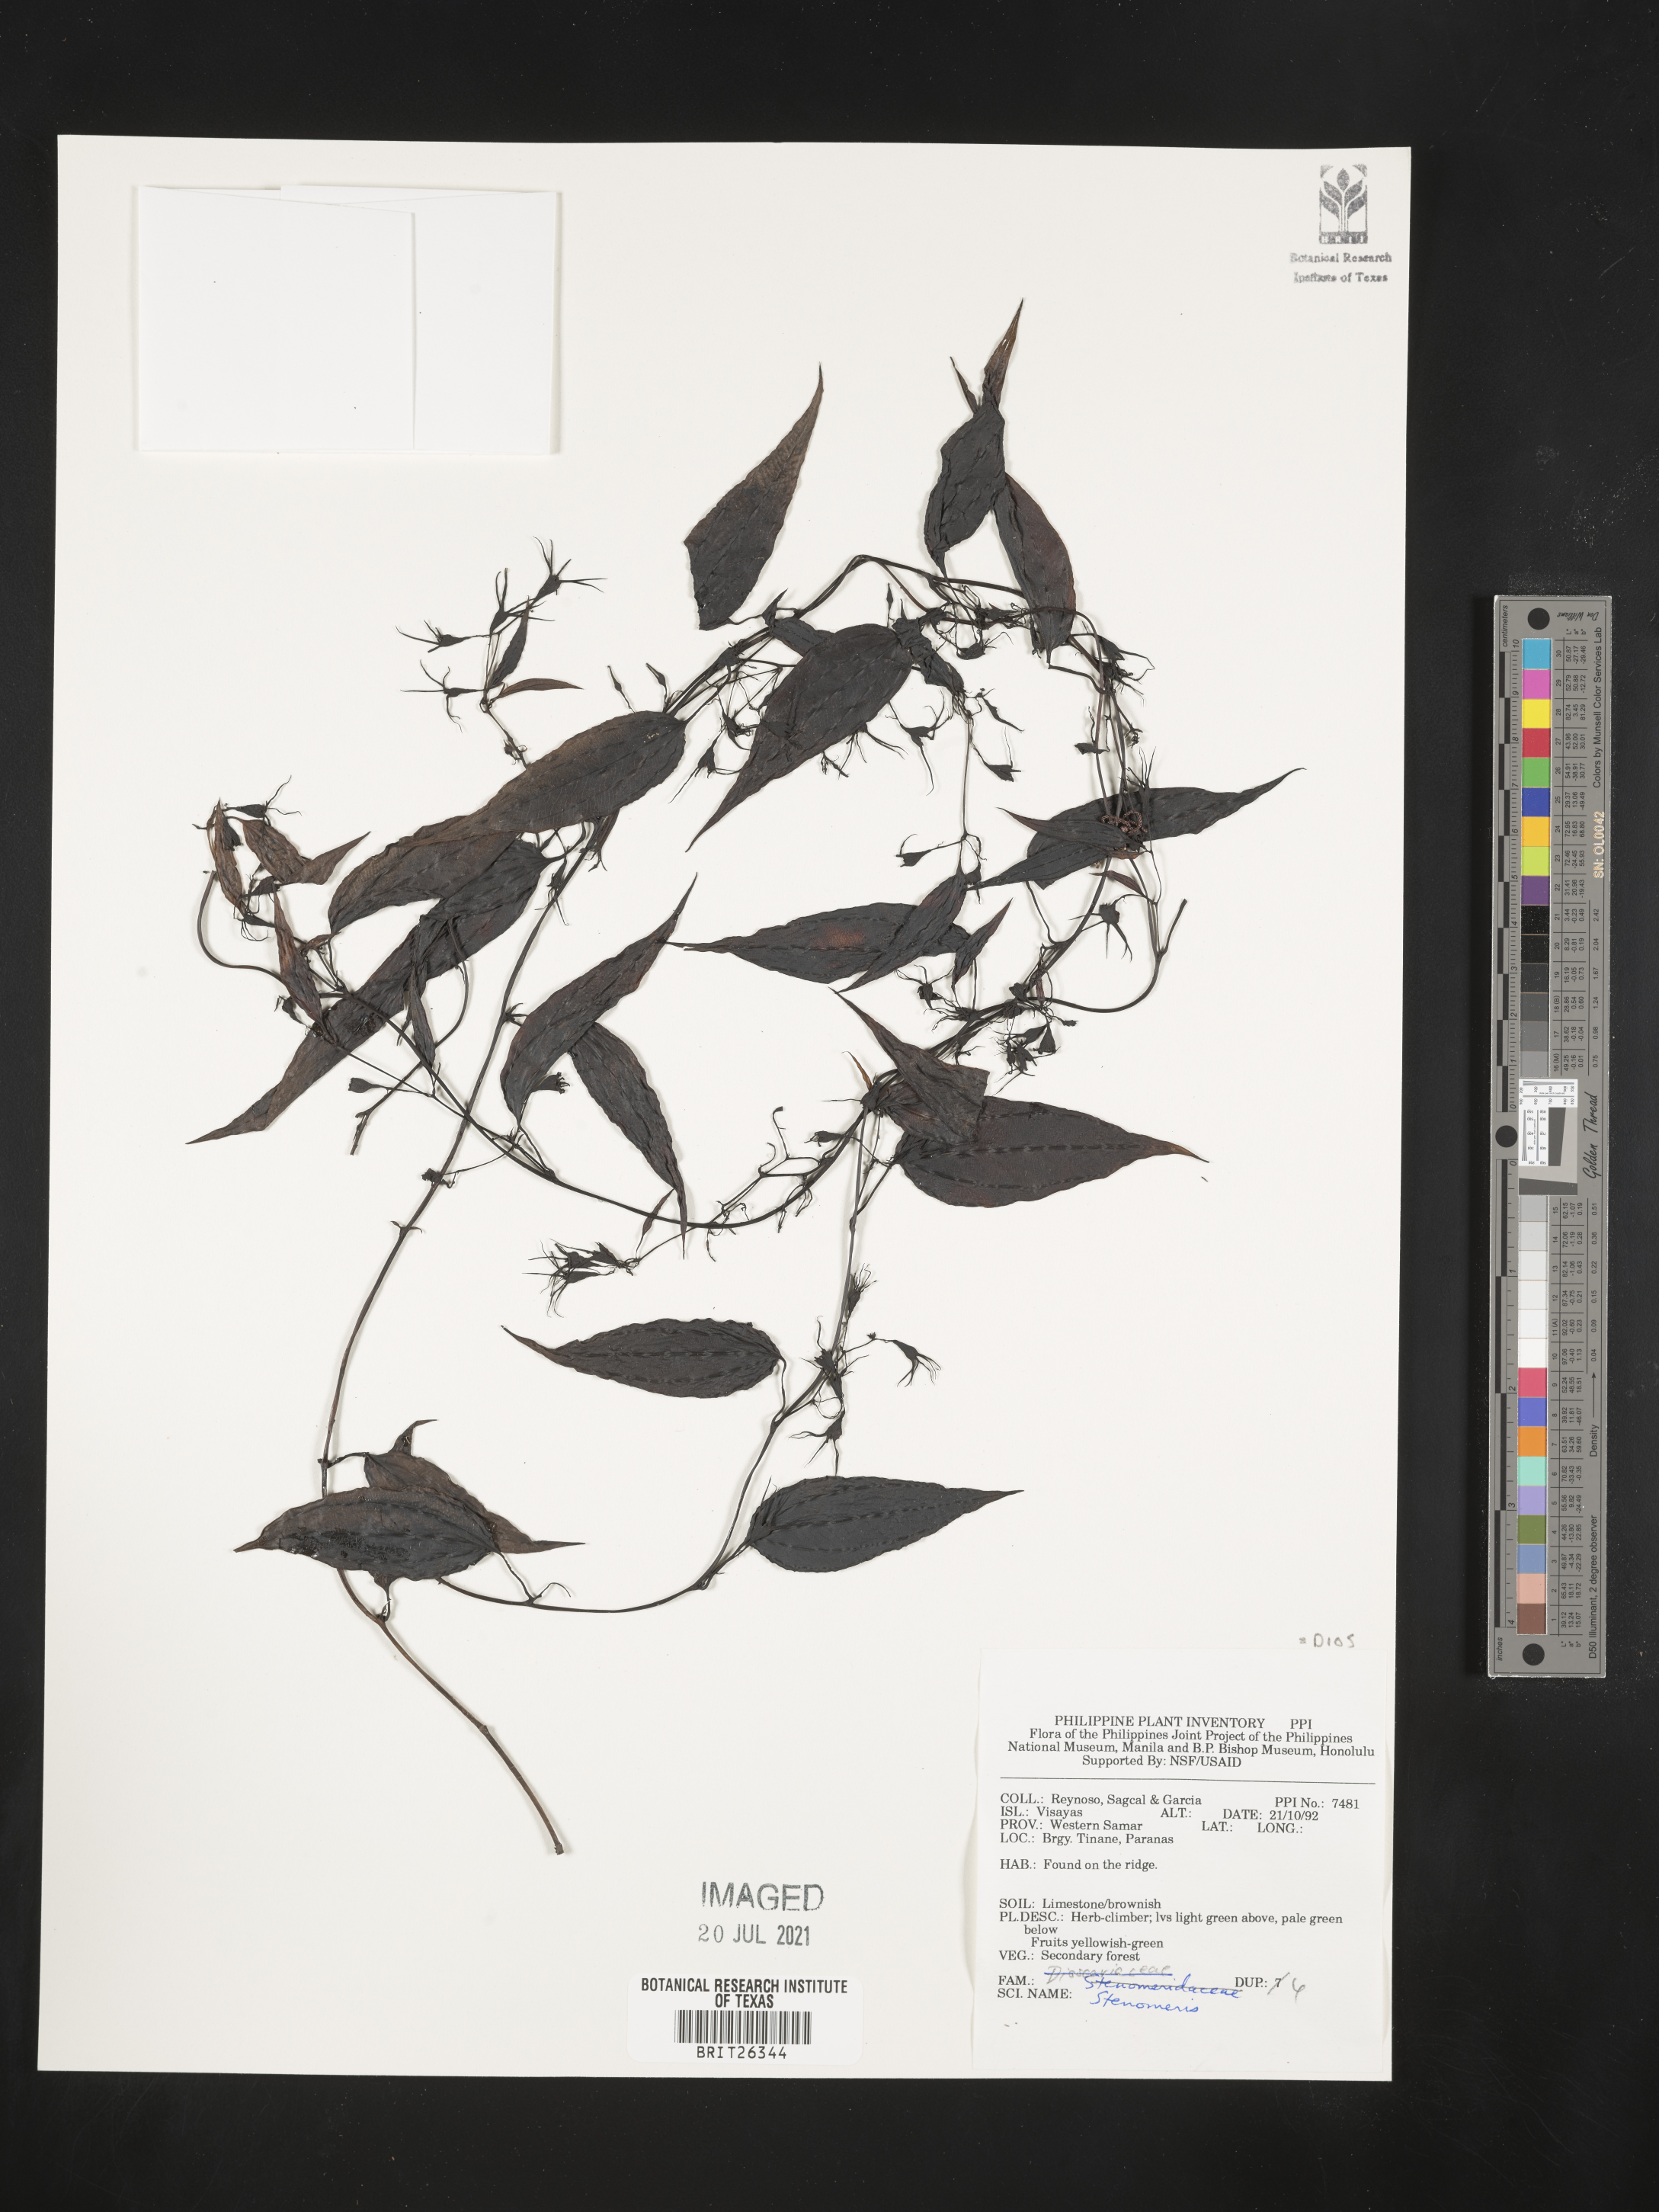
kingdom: Plantae
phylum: Tracheophyta
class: Liliopsida
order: Dioscoreales
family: Dioscoreaceae
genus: Stenomeris
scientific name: Stenomeris
